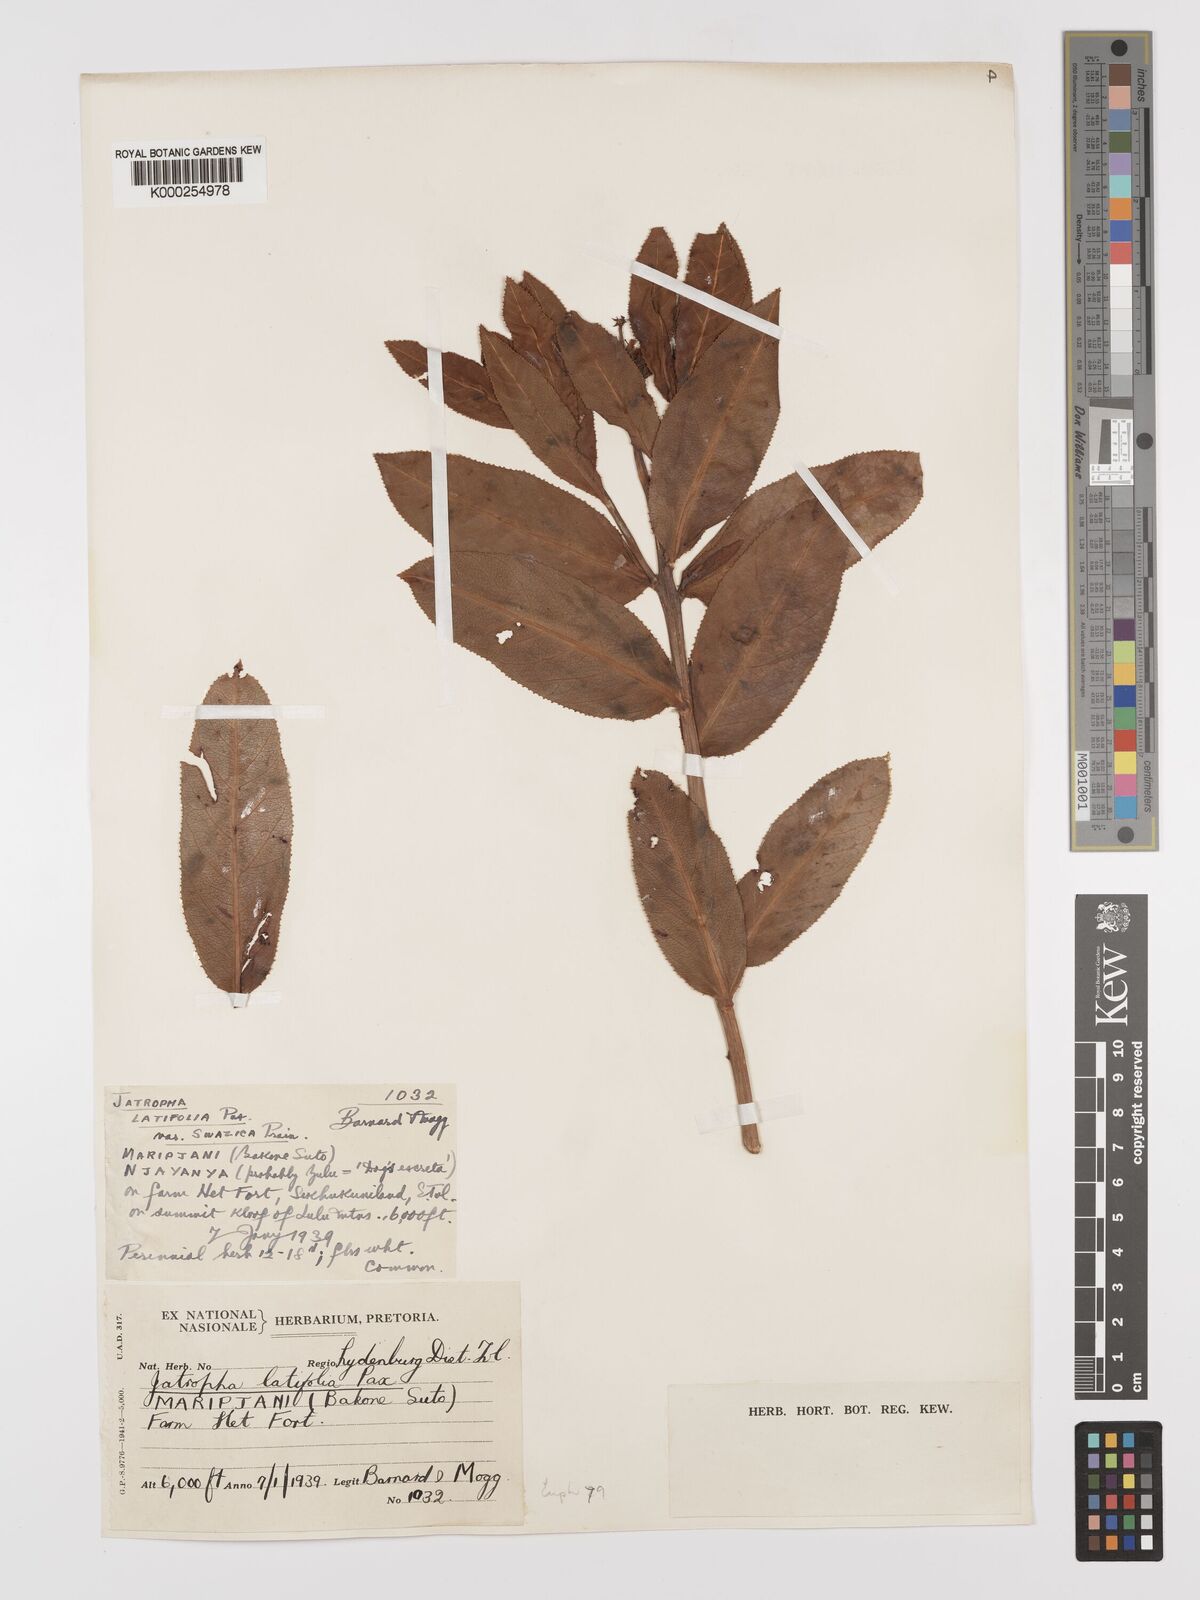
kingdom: Plantae
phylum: Tracheophyta
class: Magnoliopsida
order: Malpighiales
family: Euphorbiaceae
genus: Jatropha
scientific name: Jatropha latifolia
